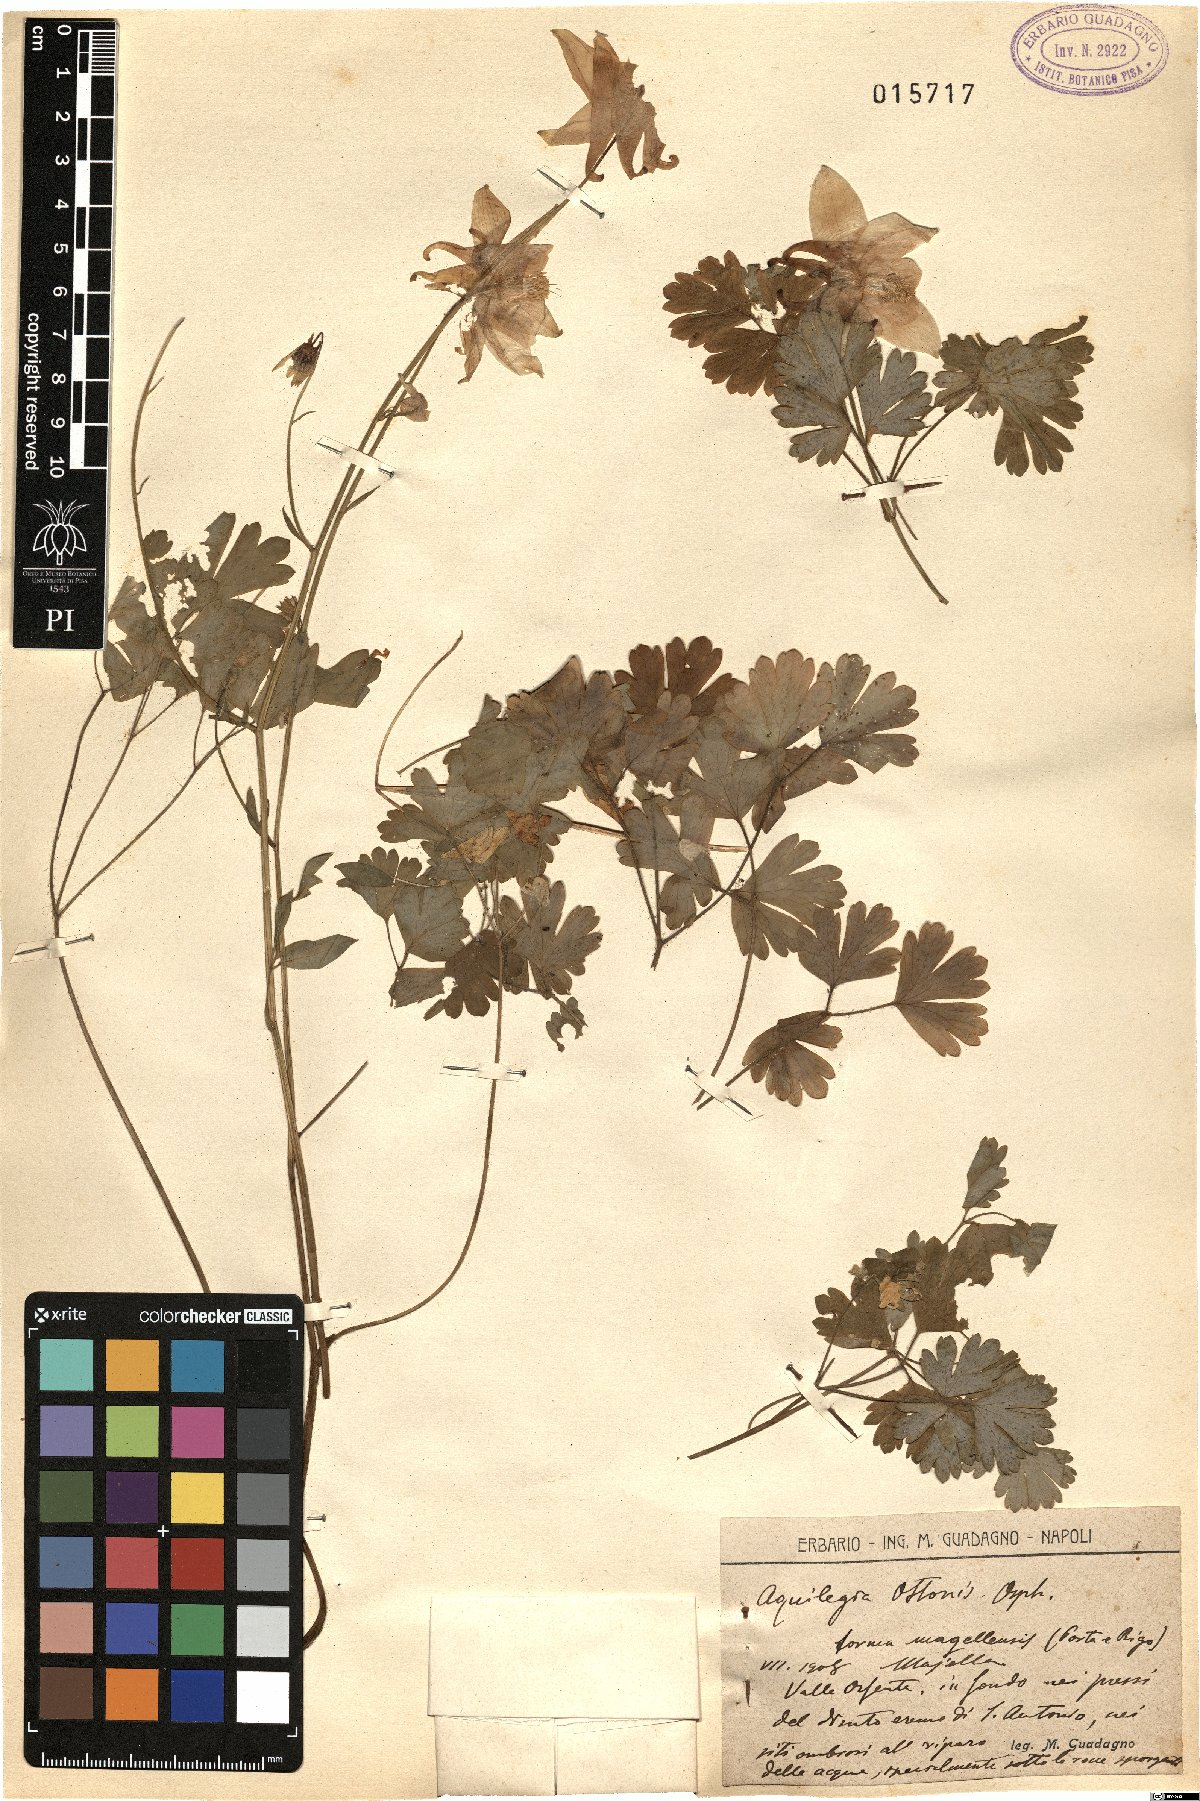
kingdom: Plantae
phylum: Tracheophyta
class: Magnoliopsida
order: Ranunculales
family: Ranunculaceae
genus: Aquilegia
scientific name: Aquilegia magellensis
